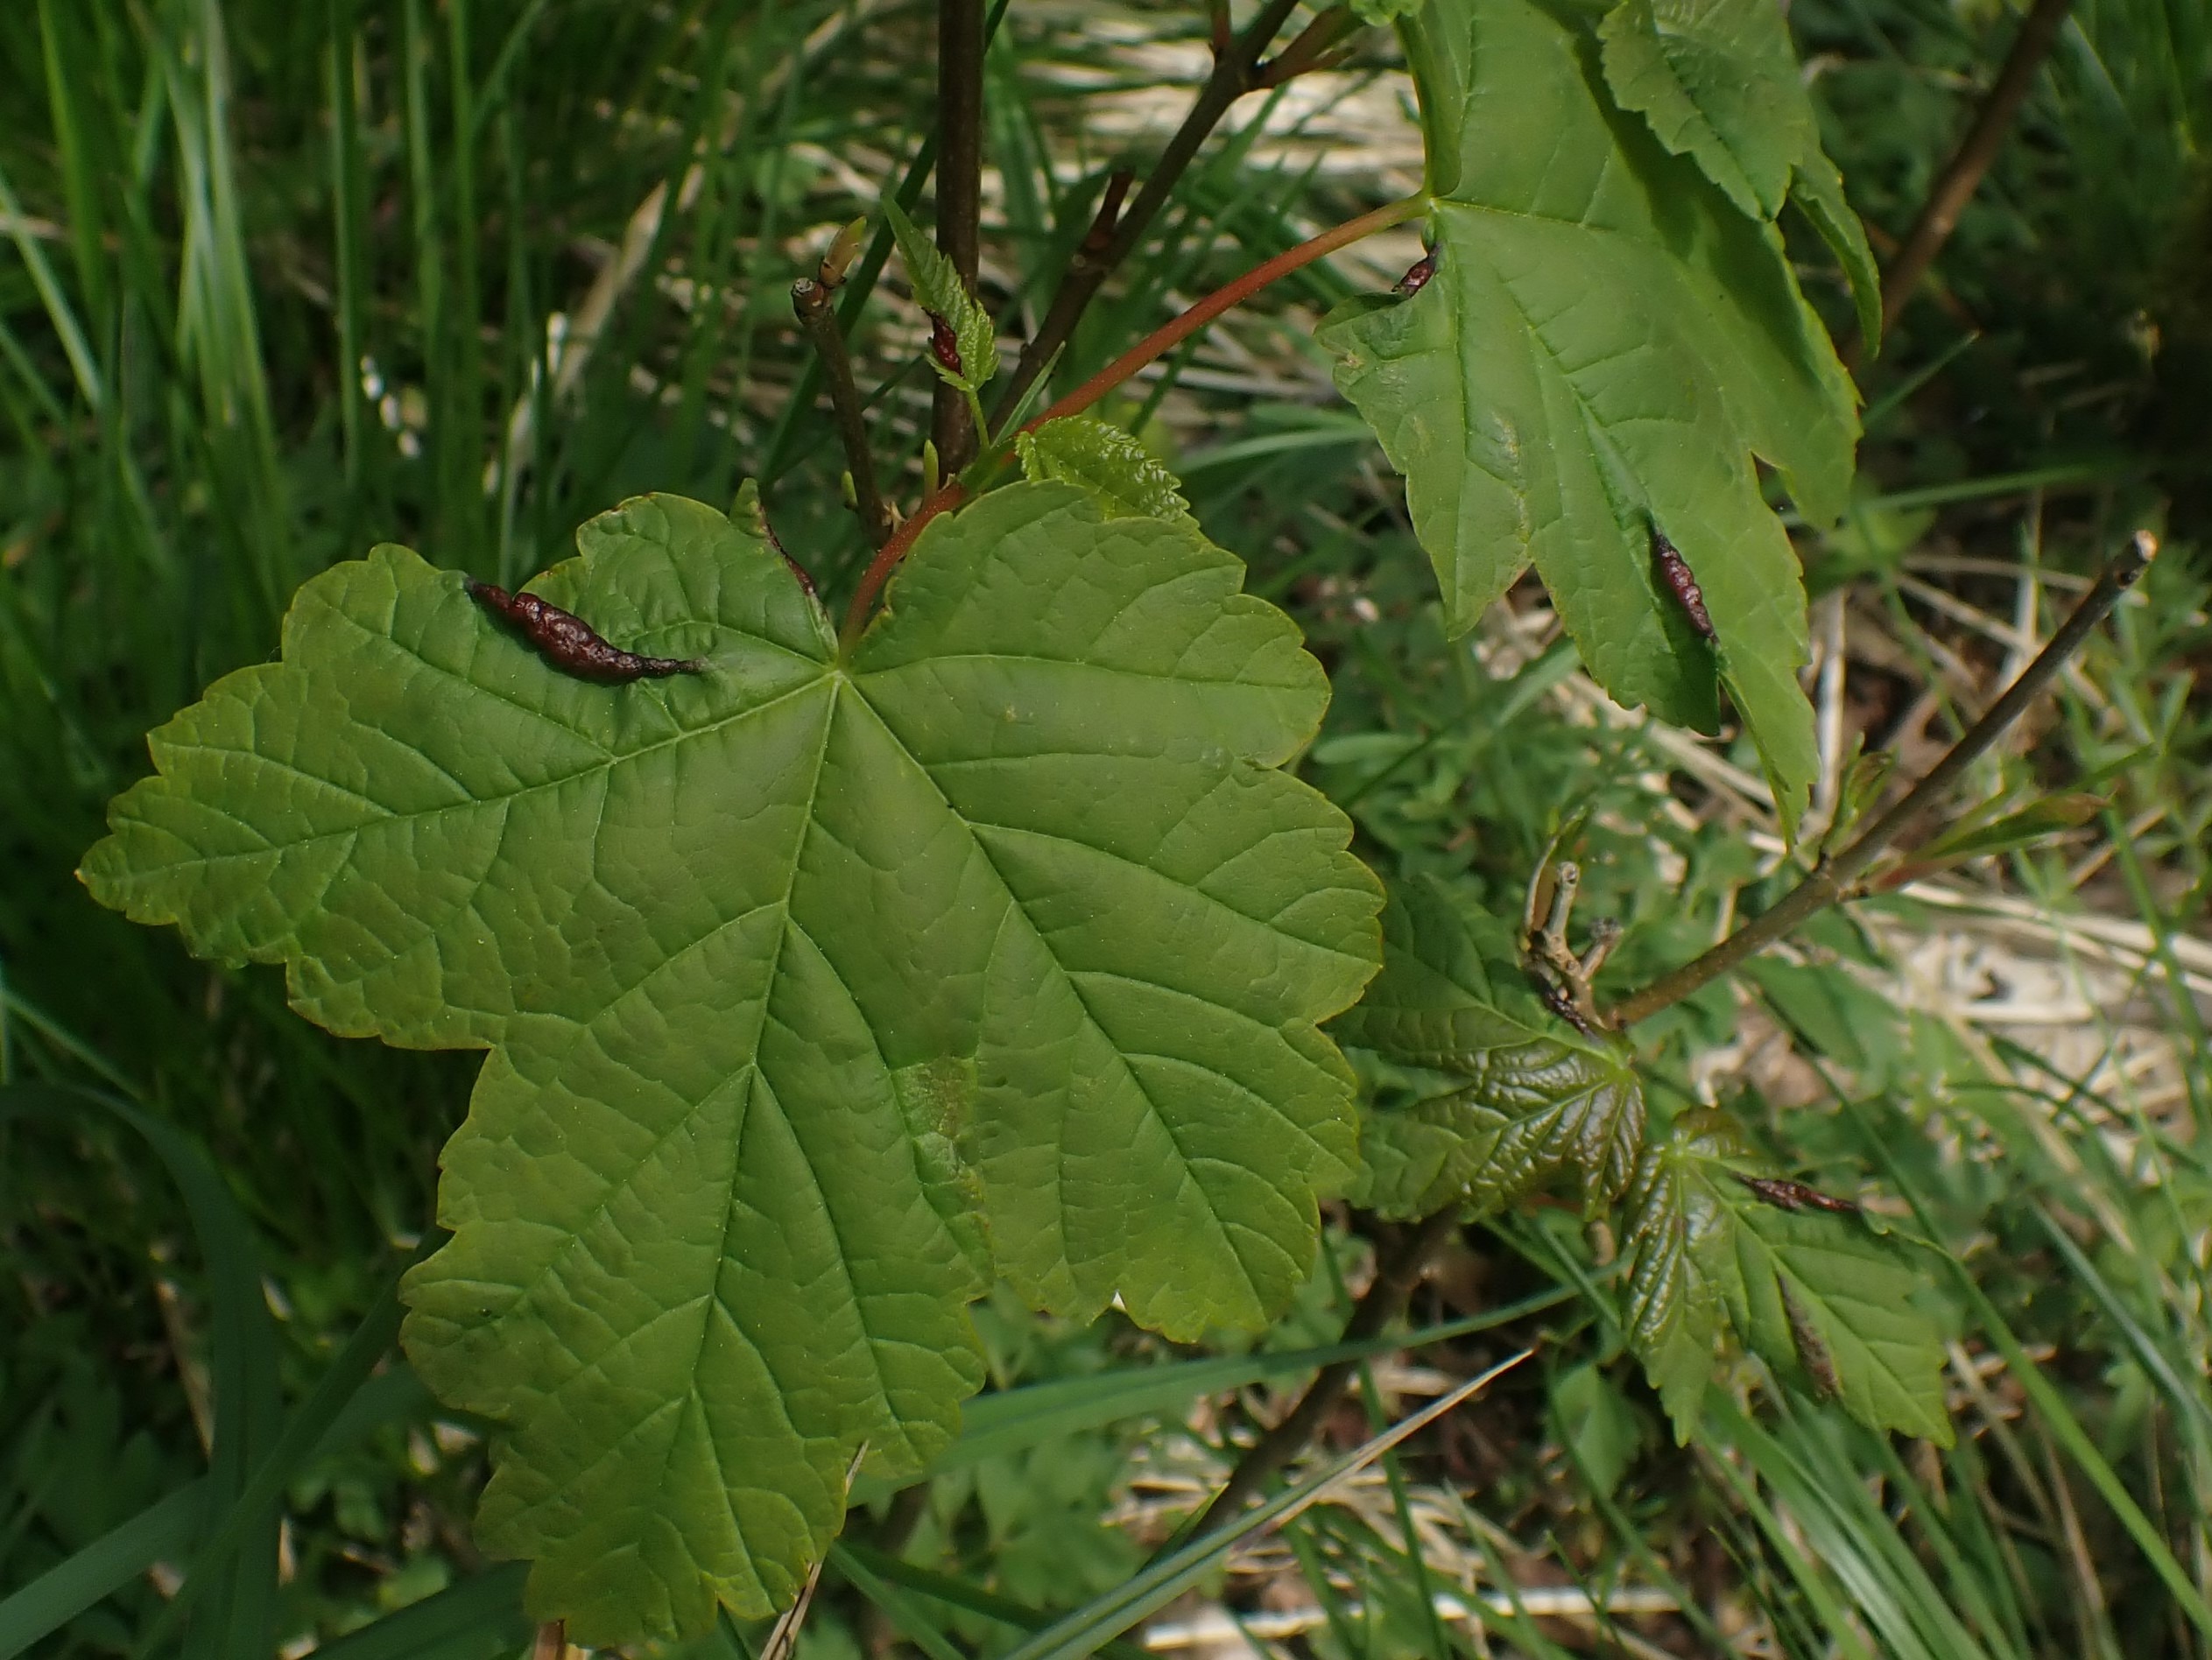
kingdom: Animalia
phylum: Arthropoda
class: Insecta
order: Diptera
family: Cecidomyiidae
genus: Contarinia
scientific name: Contarinia acerplicans
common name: Ahornvulstgalmyg
